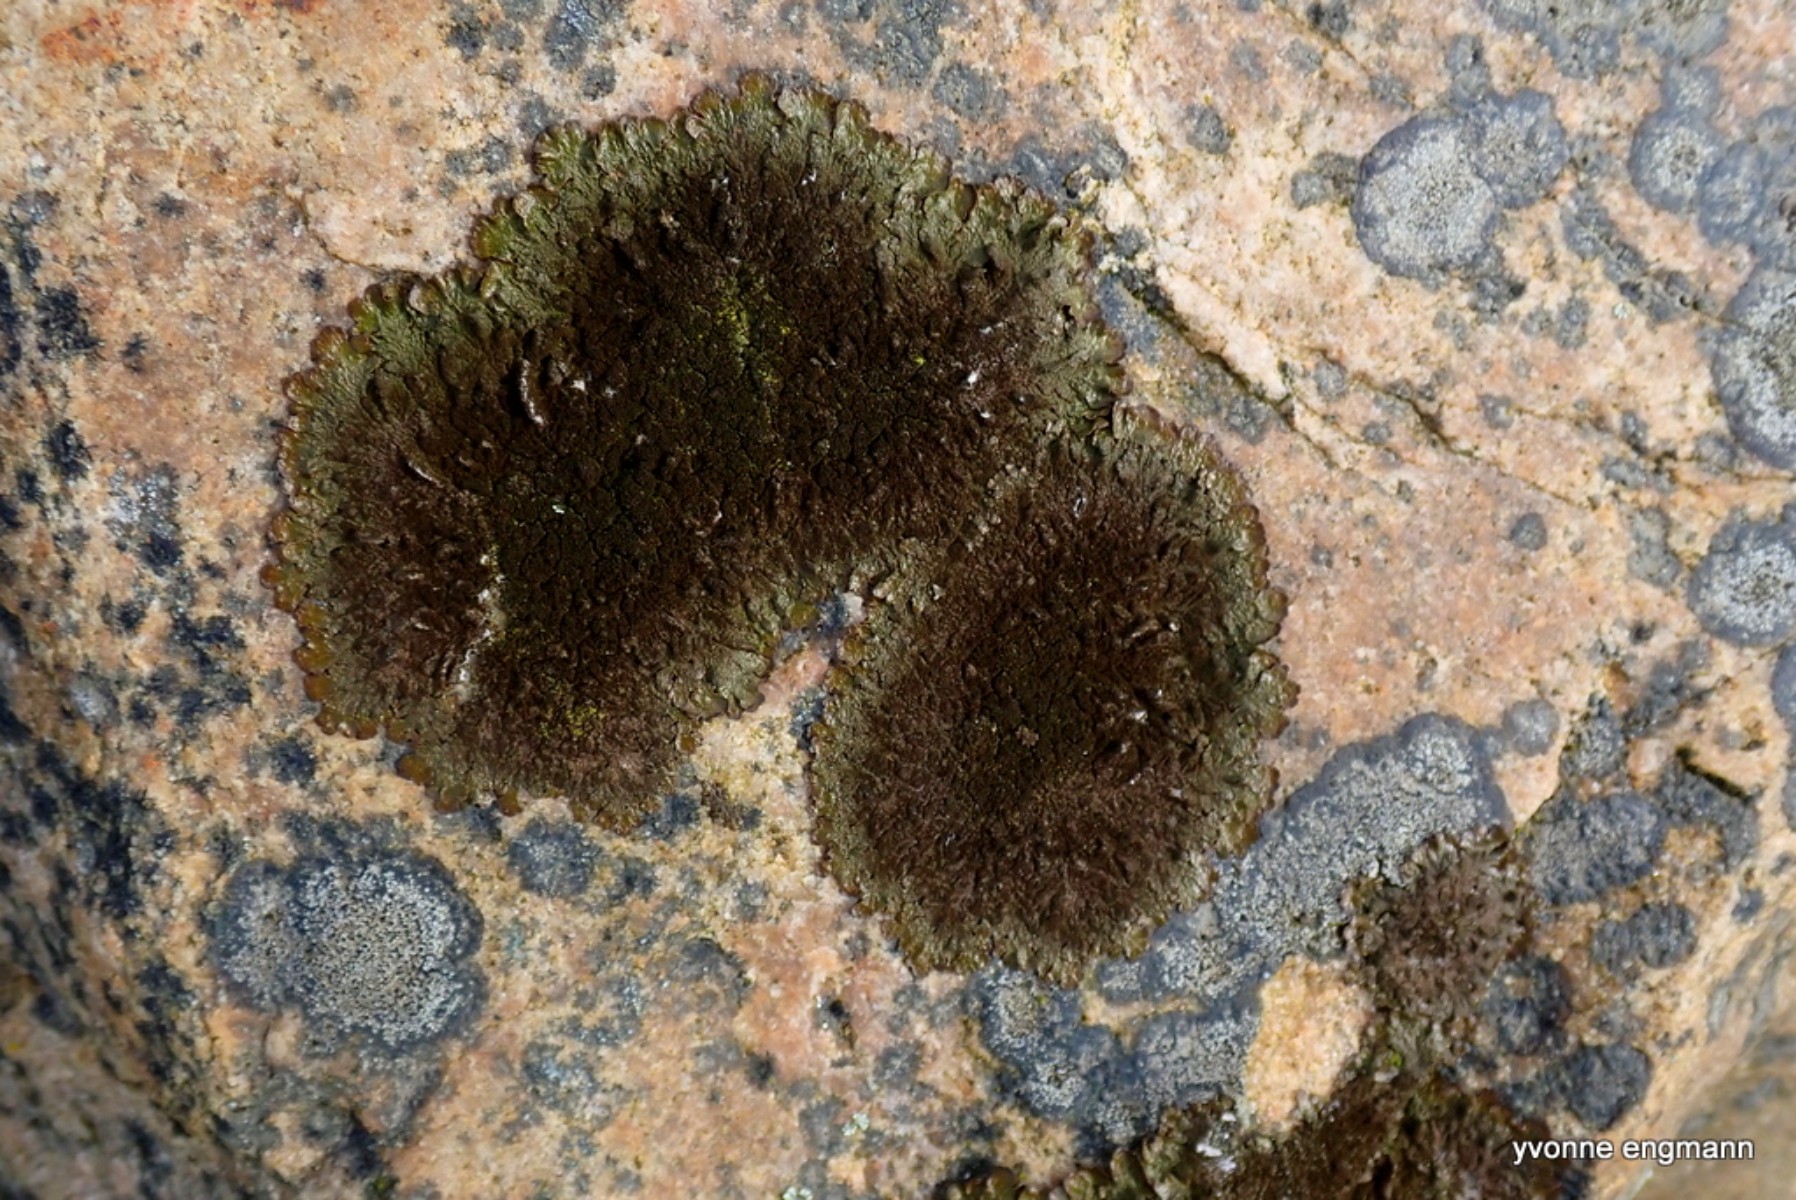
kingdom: Fungi
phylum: Ascomycota
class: Lecanoromycetes
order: Lecanorales
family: Parmeliaceae
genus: Melanelixia
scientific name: Melanelixia fuliginosa
